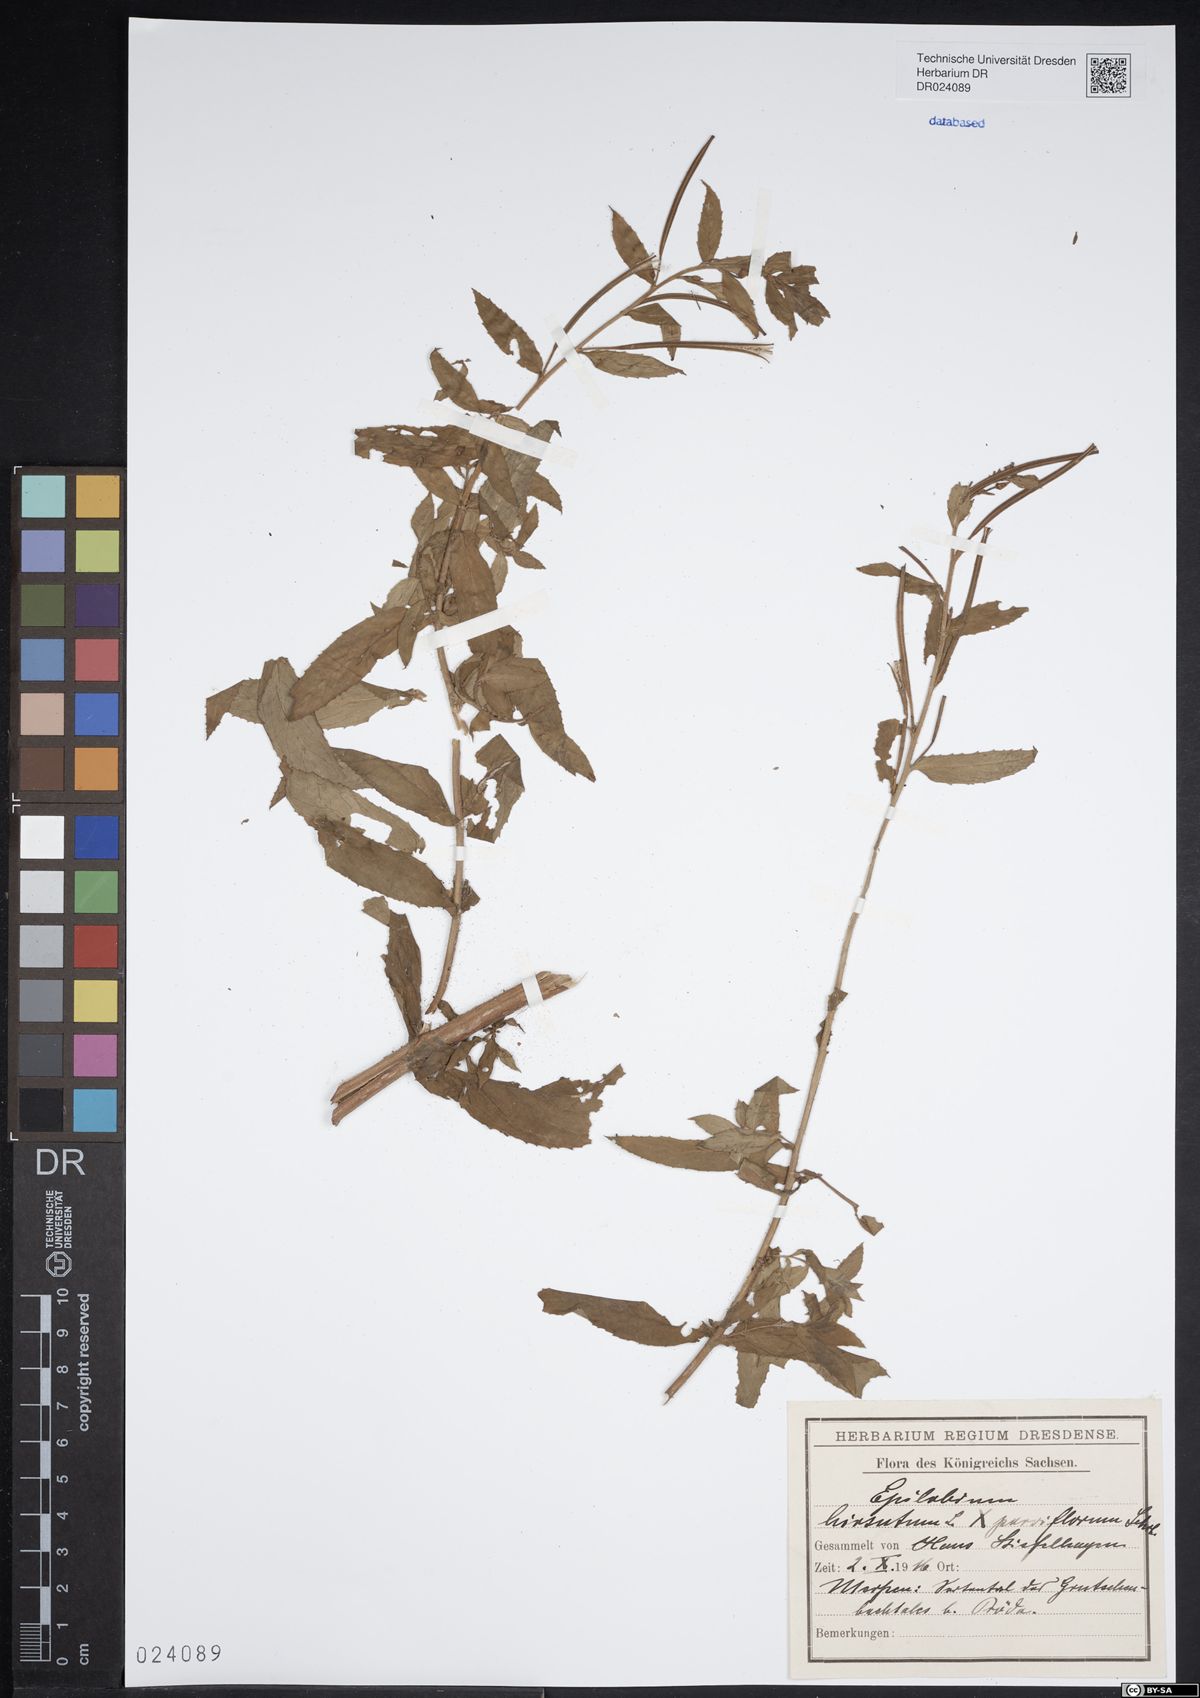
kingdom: Plantae
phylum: Tracheophyta
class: Magnoliopsida
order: Myrtales
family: Onagraceae
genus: Epilobium
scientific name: Epilobium sericeum
